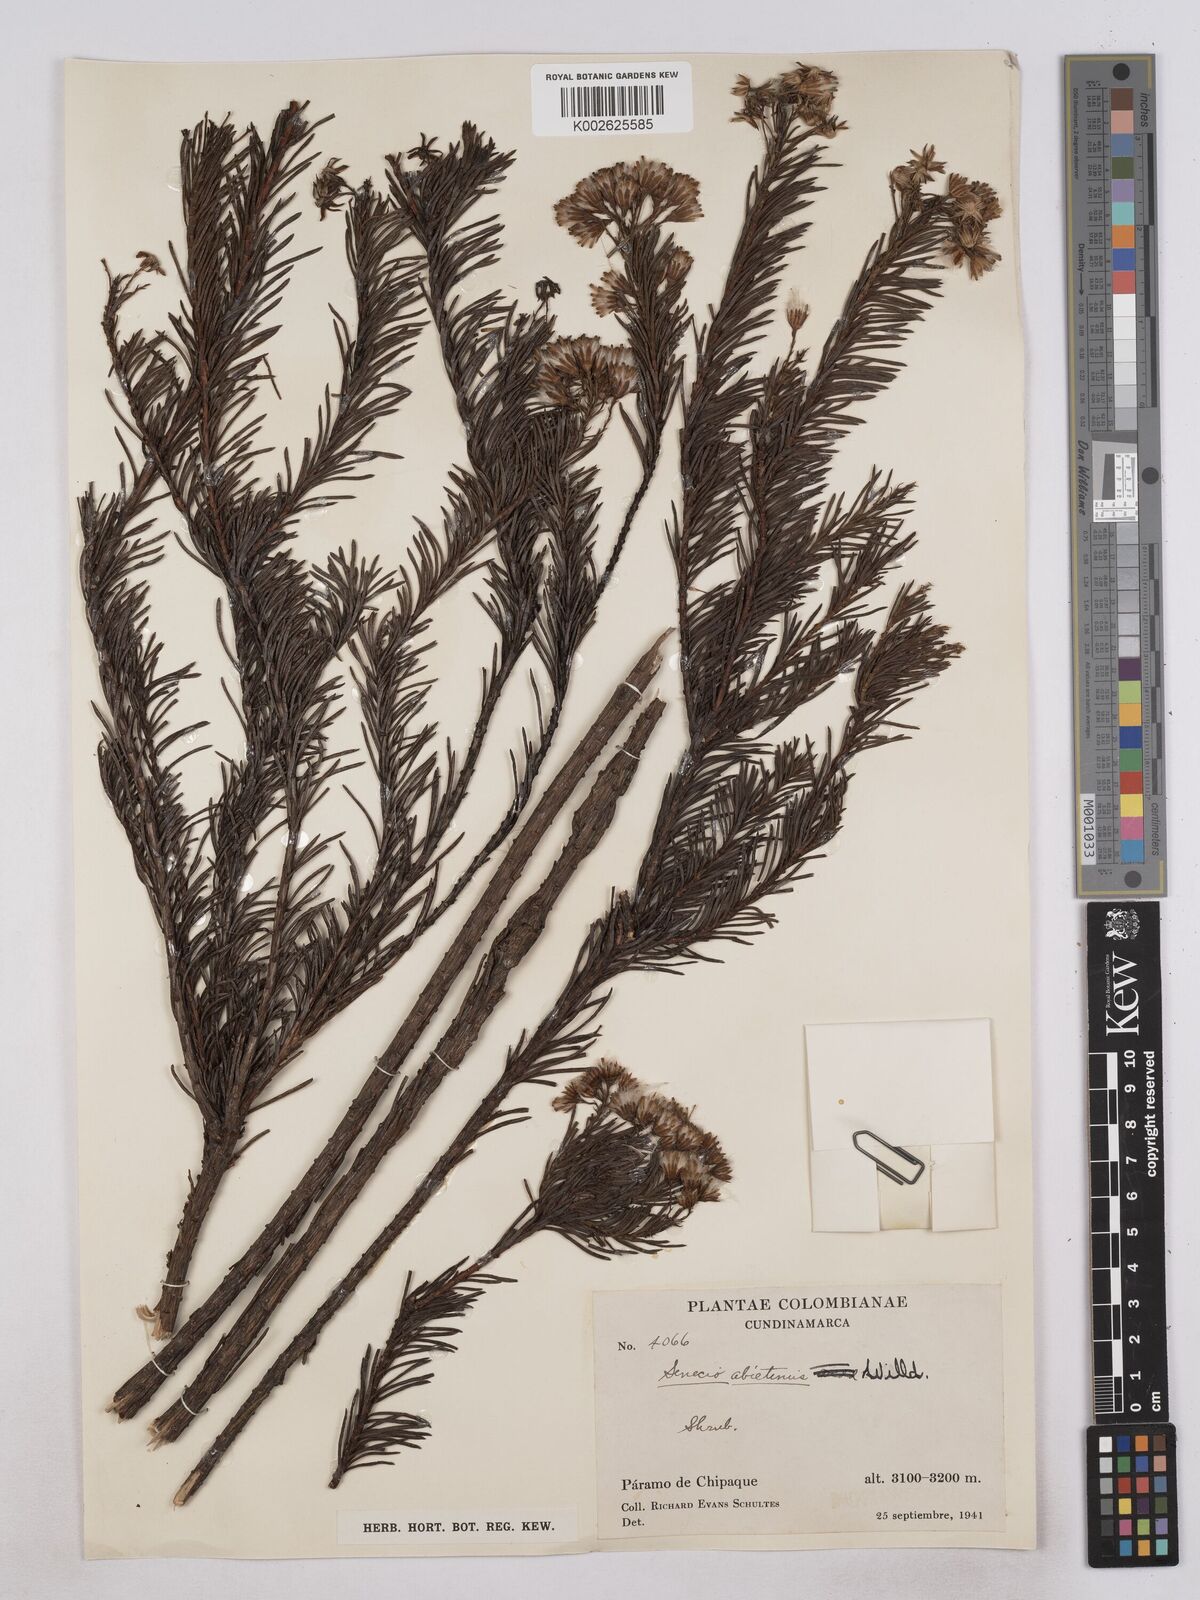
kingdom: Plantae
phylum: Tracheophyta
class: Magnoliopsida
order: Asterales
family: Asteraceae
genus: Monticalia
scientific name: Monticalia abietina
